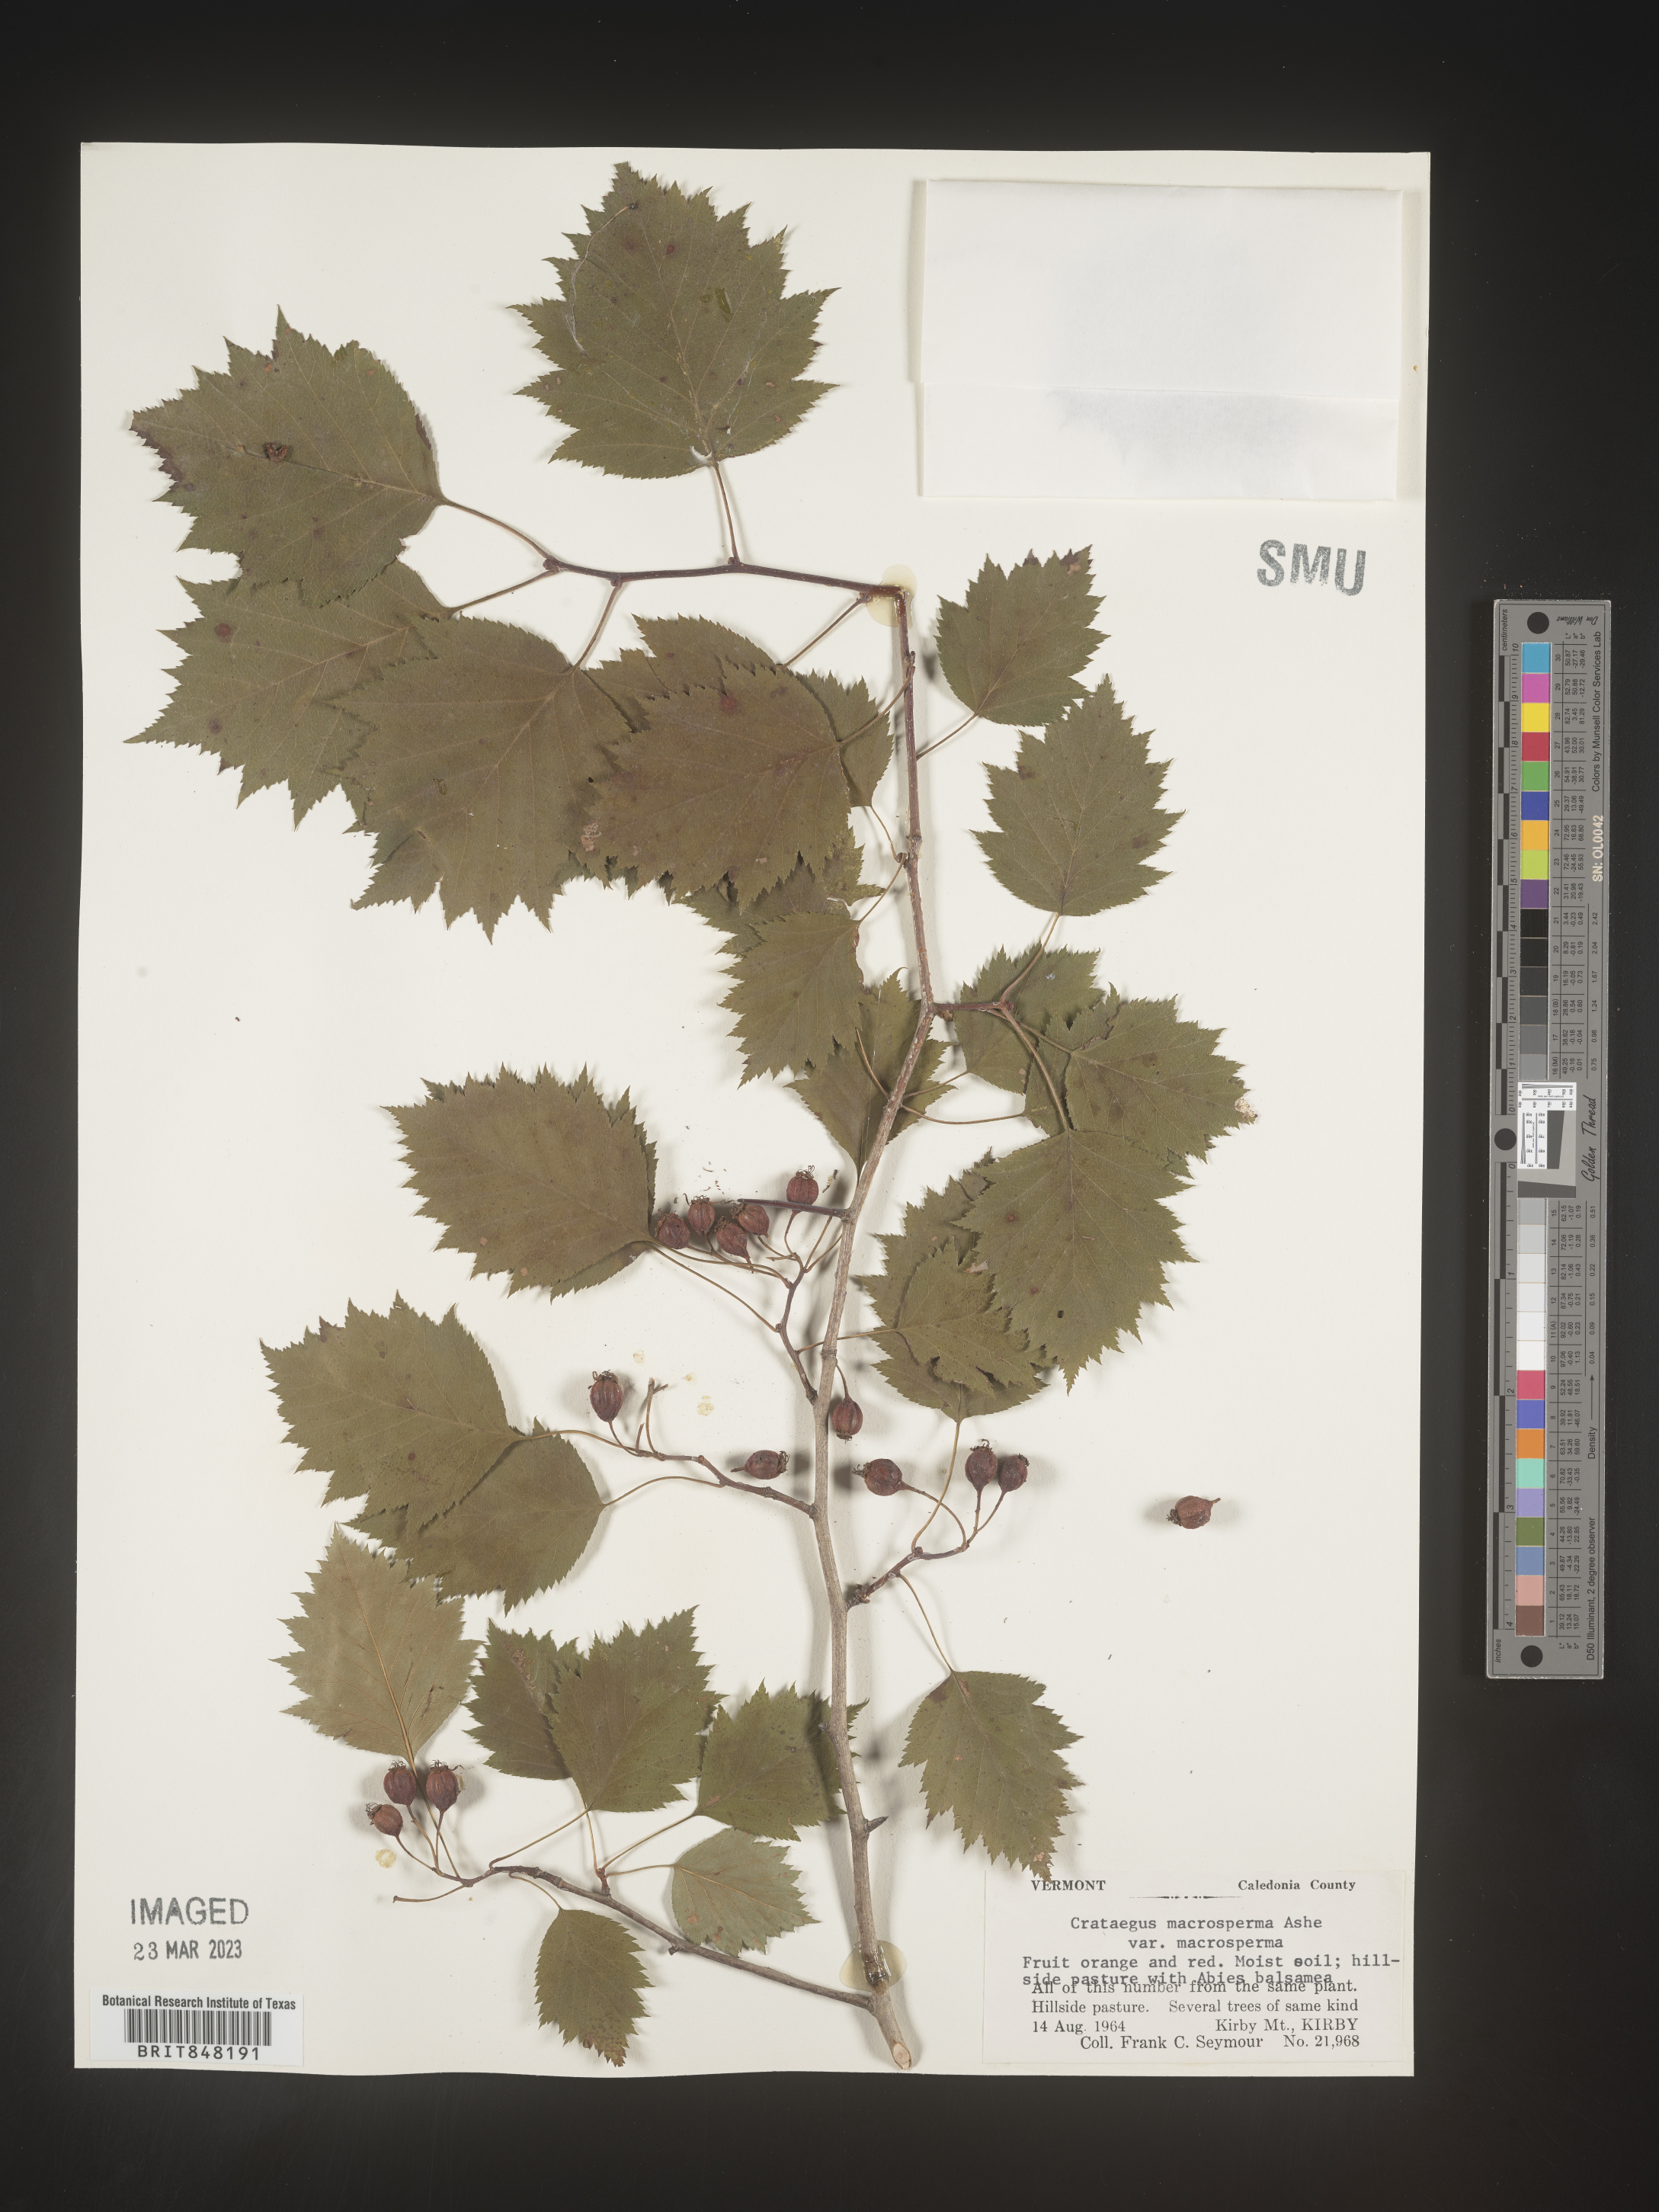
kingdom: Plantae
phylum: Tracheophyta
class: Magnoliopsida
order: Rosales
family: Rosaceae
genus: Crataegus
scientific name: Crataegus macrosperma
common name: Variable hawthorn
